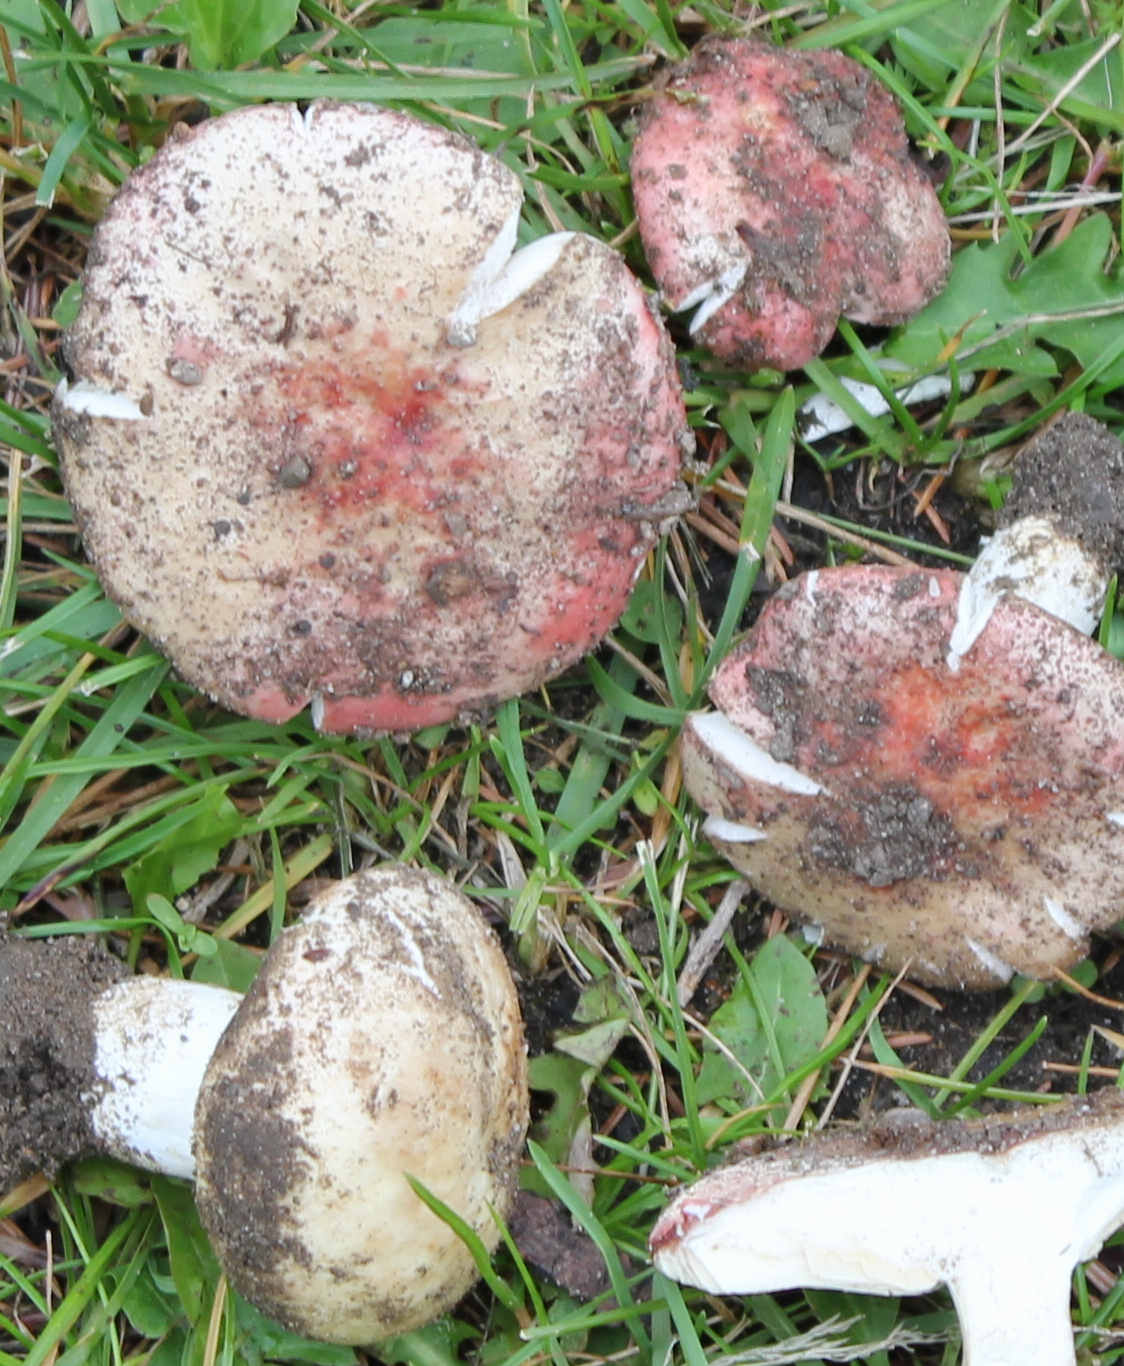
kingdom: Fungi
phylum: Basidiomycota
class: Agaricomycetes
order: Russulales
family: Russulaceae
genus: Russula
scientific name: Russula depallens
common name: falmende skørhat
